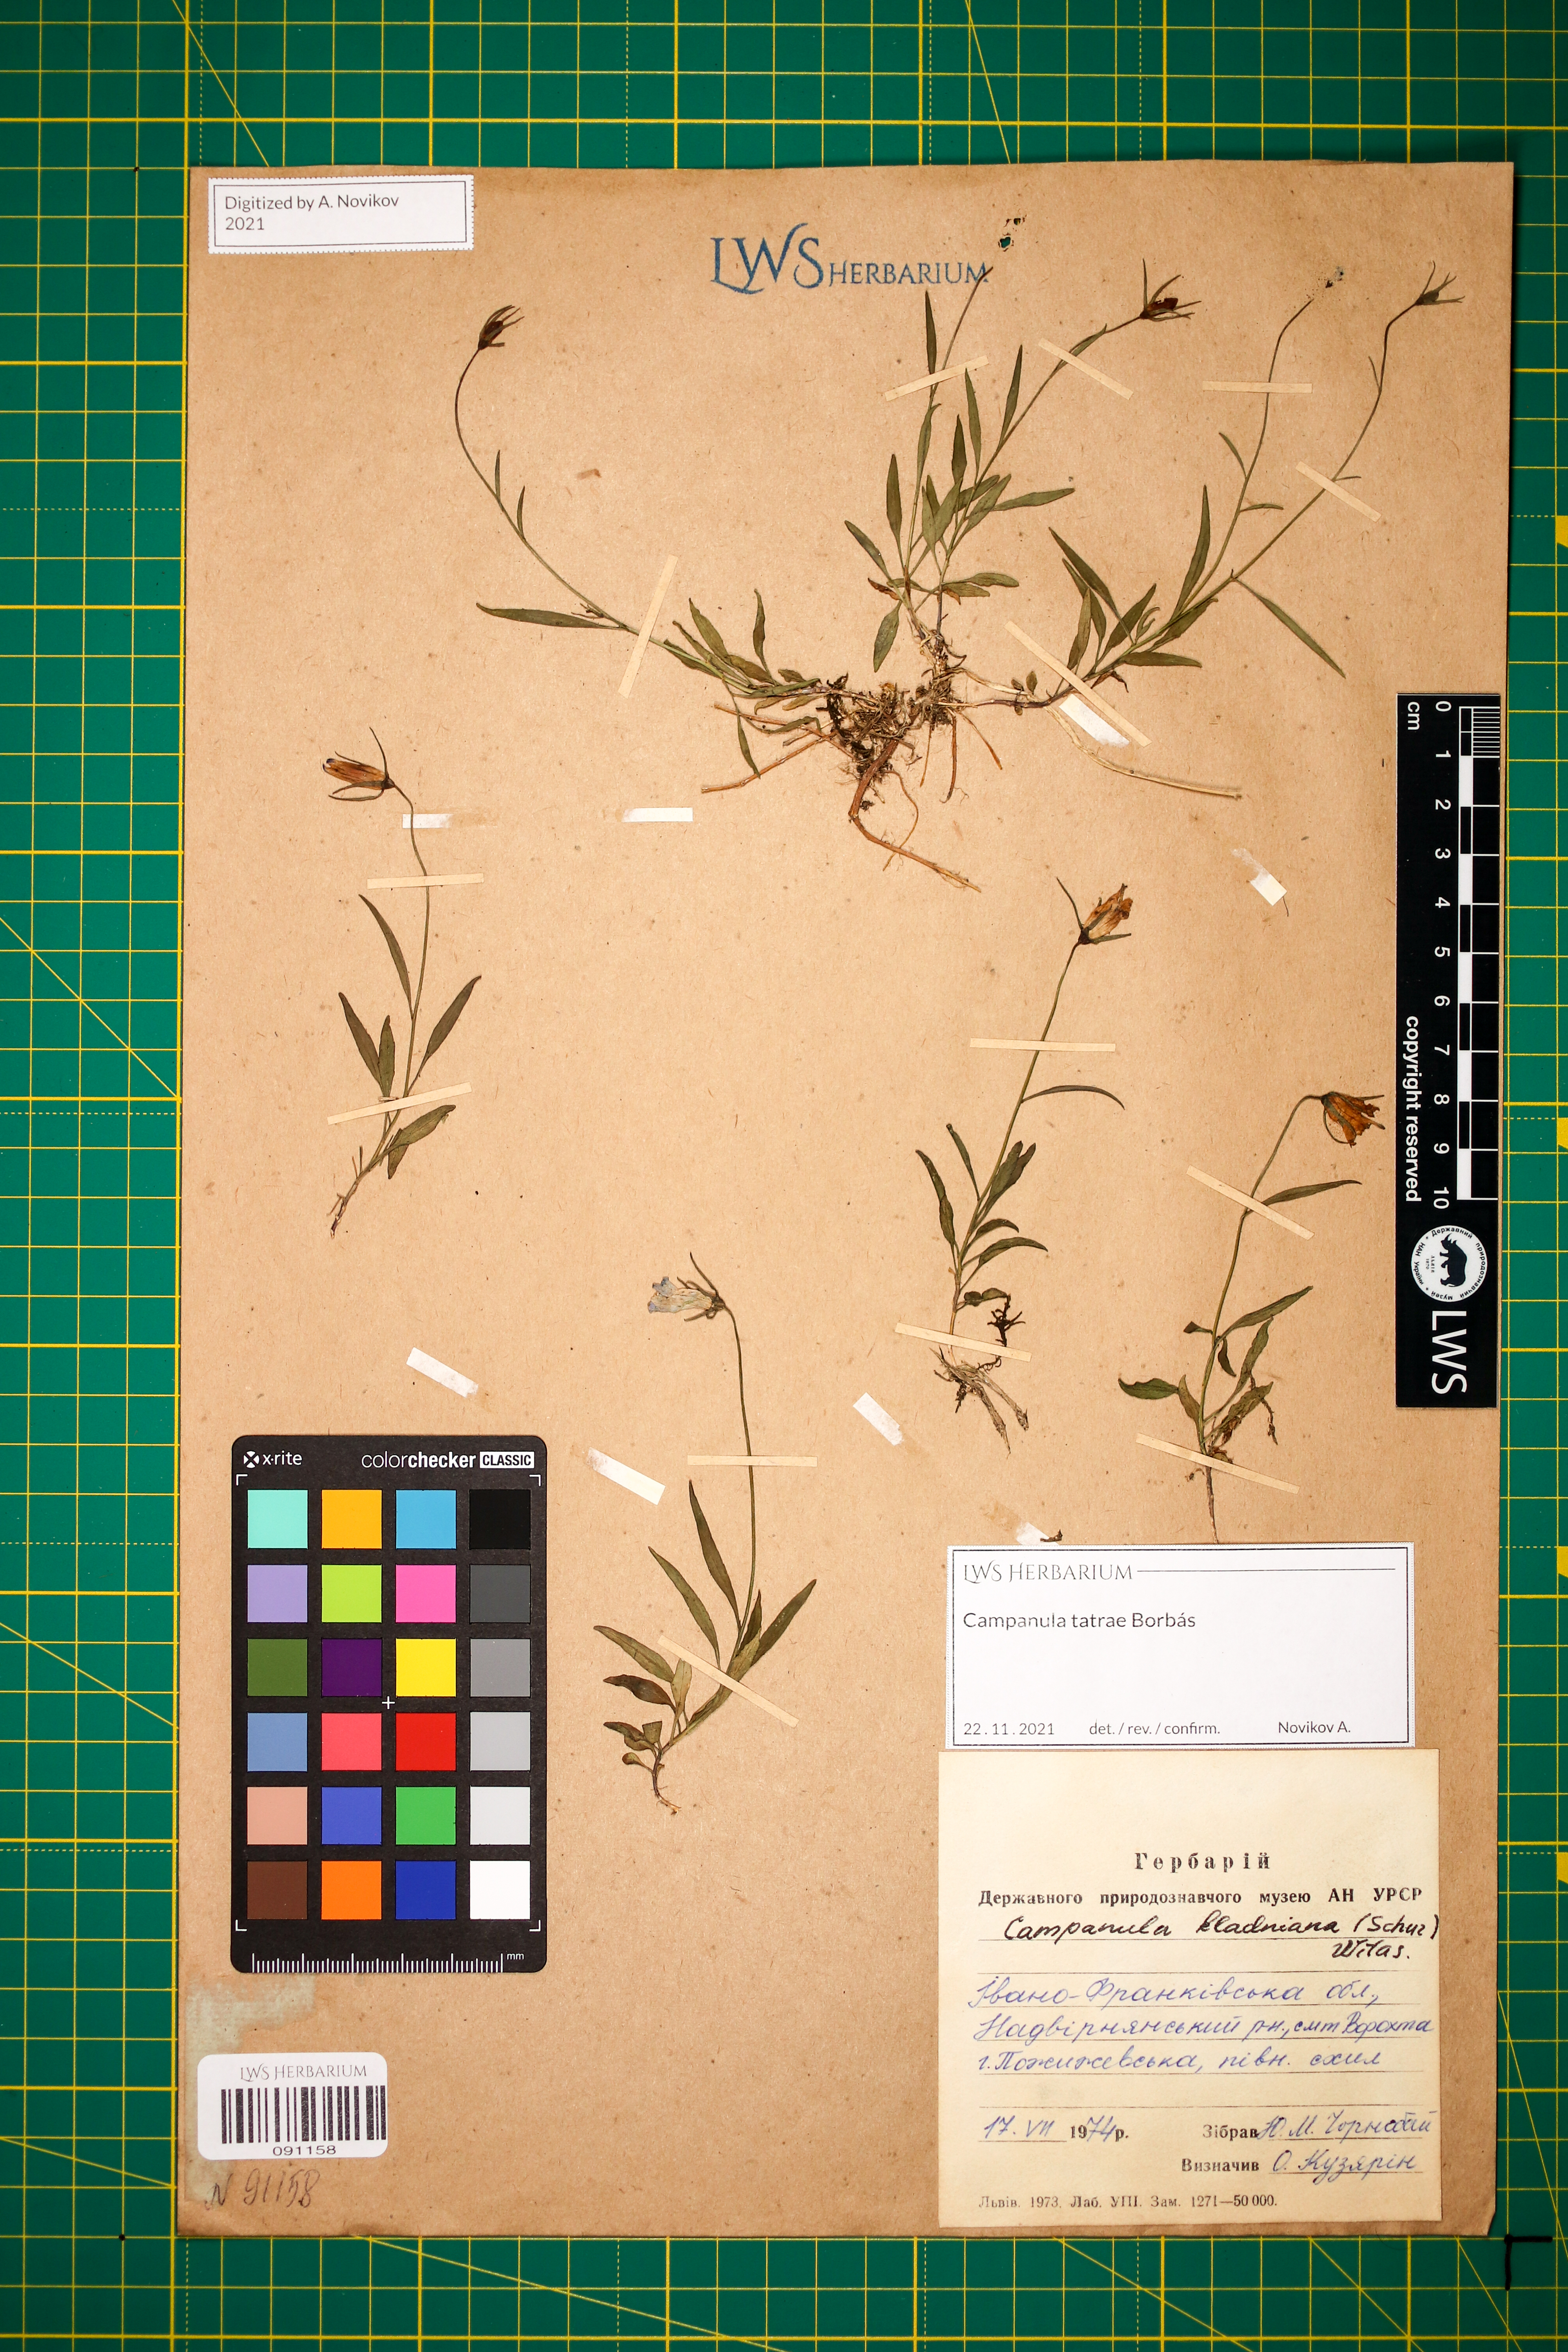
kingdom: Plantae
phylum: Tracheophyta
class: Magnoliopsida
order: Asterales
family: Campanulaceae
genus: Campanula
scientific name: Campanula kladniana
